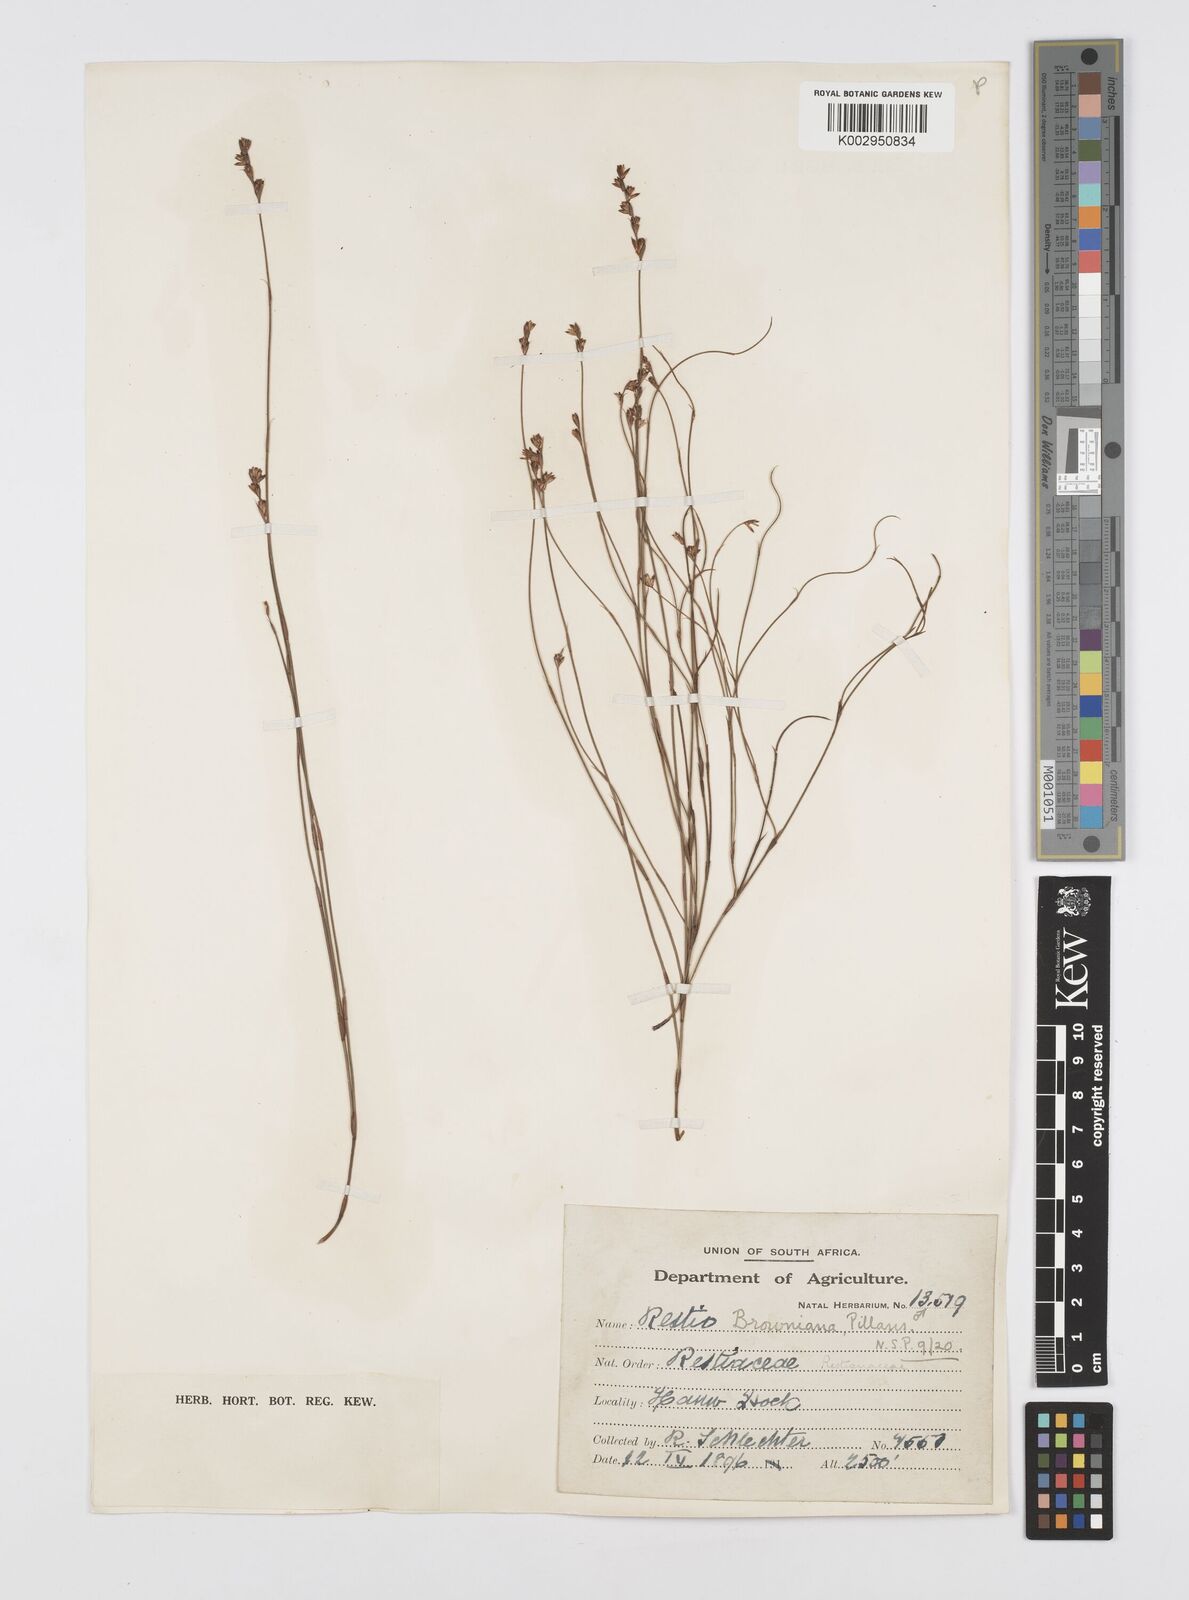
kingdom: Plantae
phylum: Tracheophyta
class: Liliopsida
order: Poales
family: Restionaceae
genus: Restio
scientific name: Restio debilis
